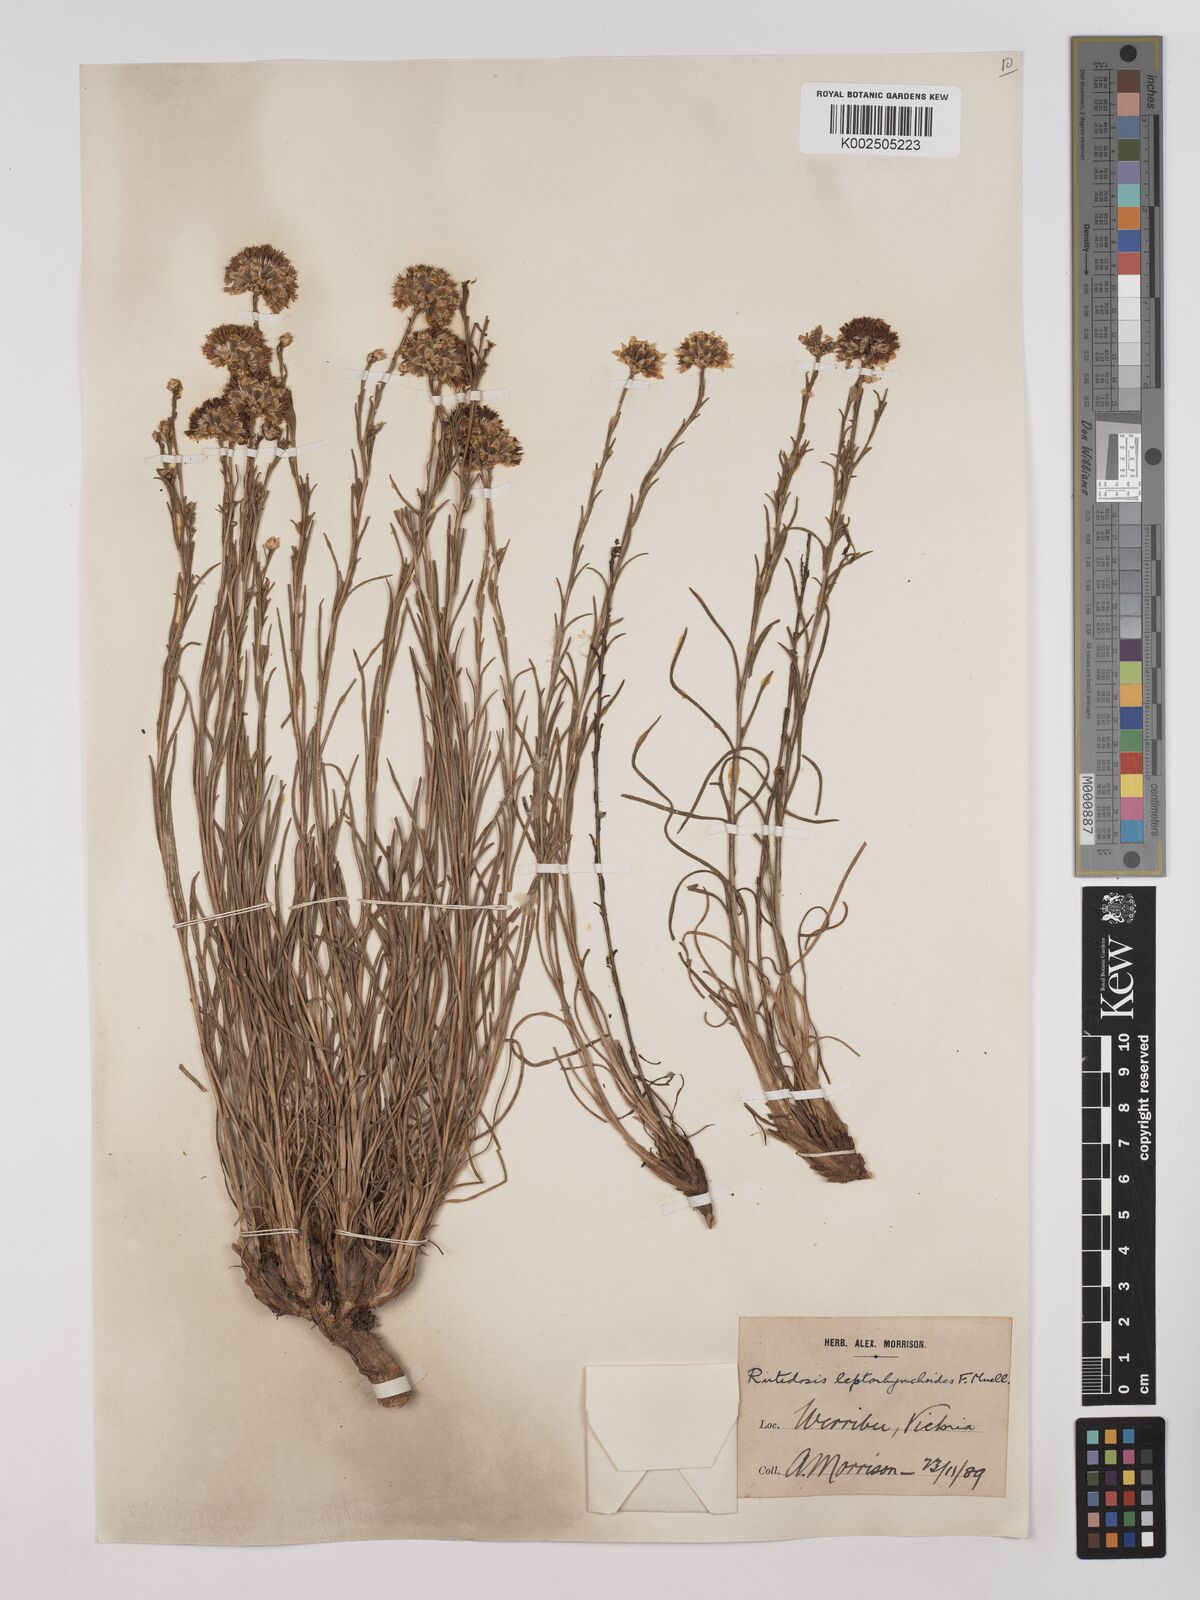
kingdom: Plantae
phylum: Tracheophyta
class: Magnoliopsida
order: Asterales
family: Asteraceae
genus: Rutidosis
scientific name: Rutidosis leptorrhynchoides
